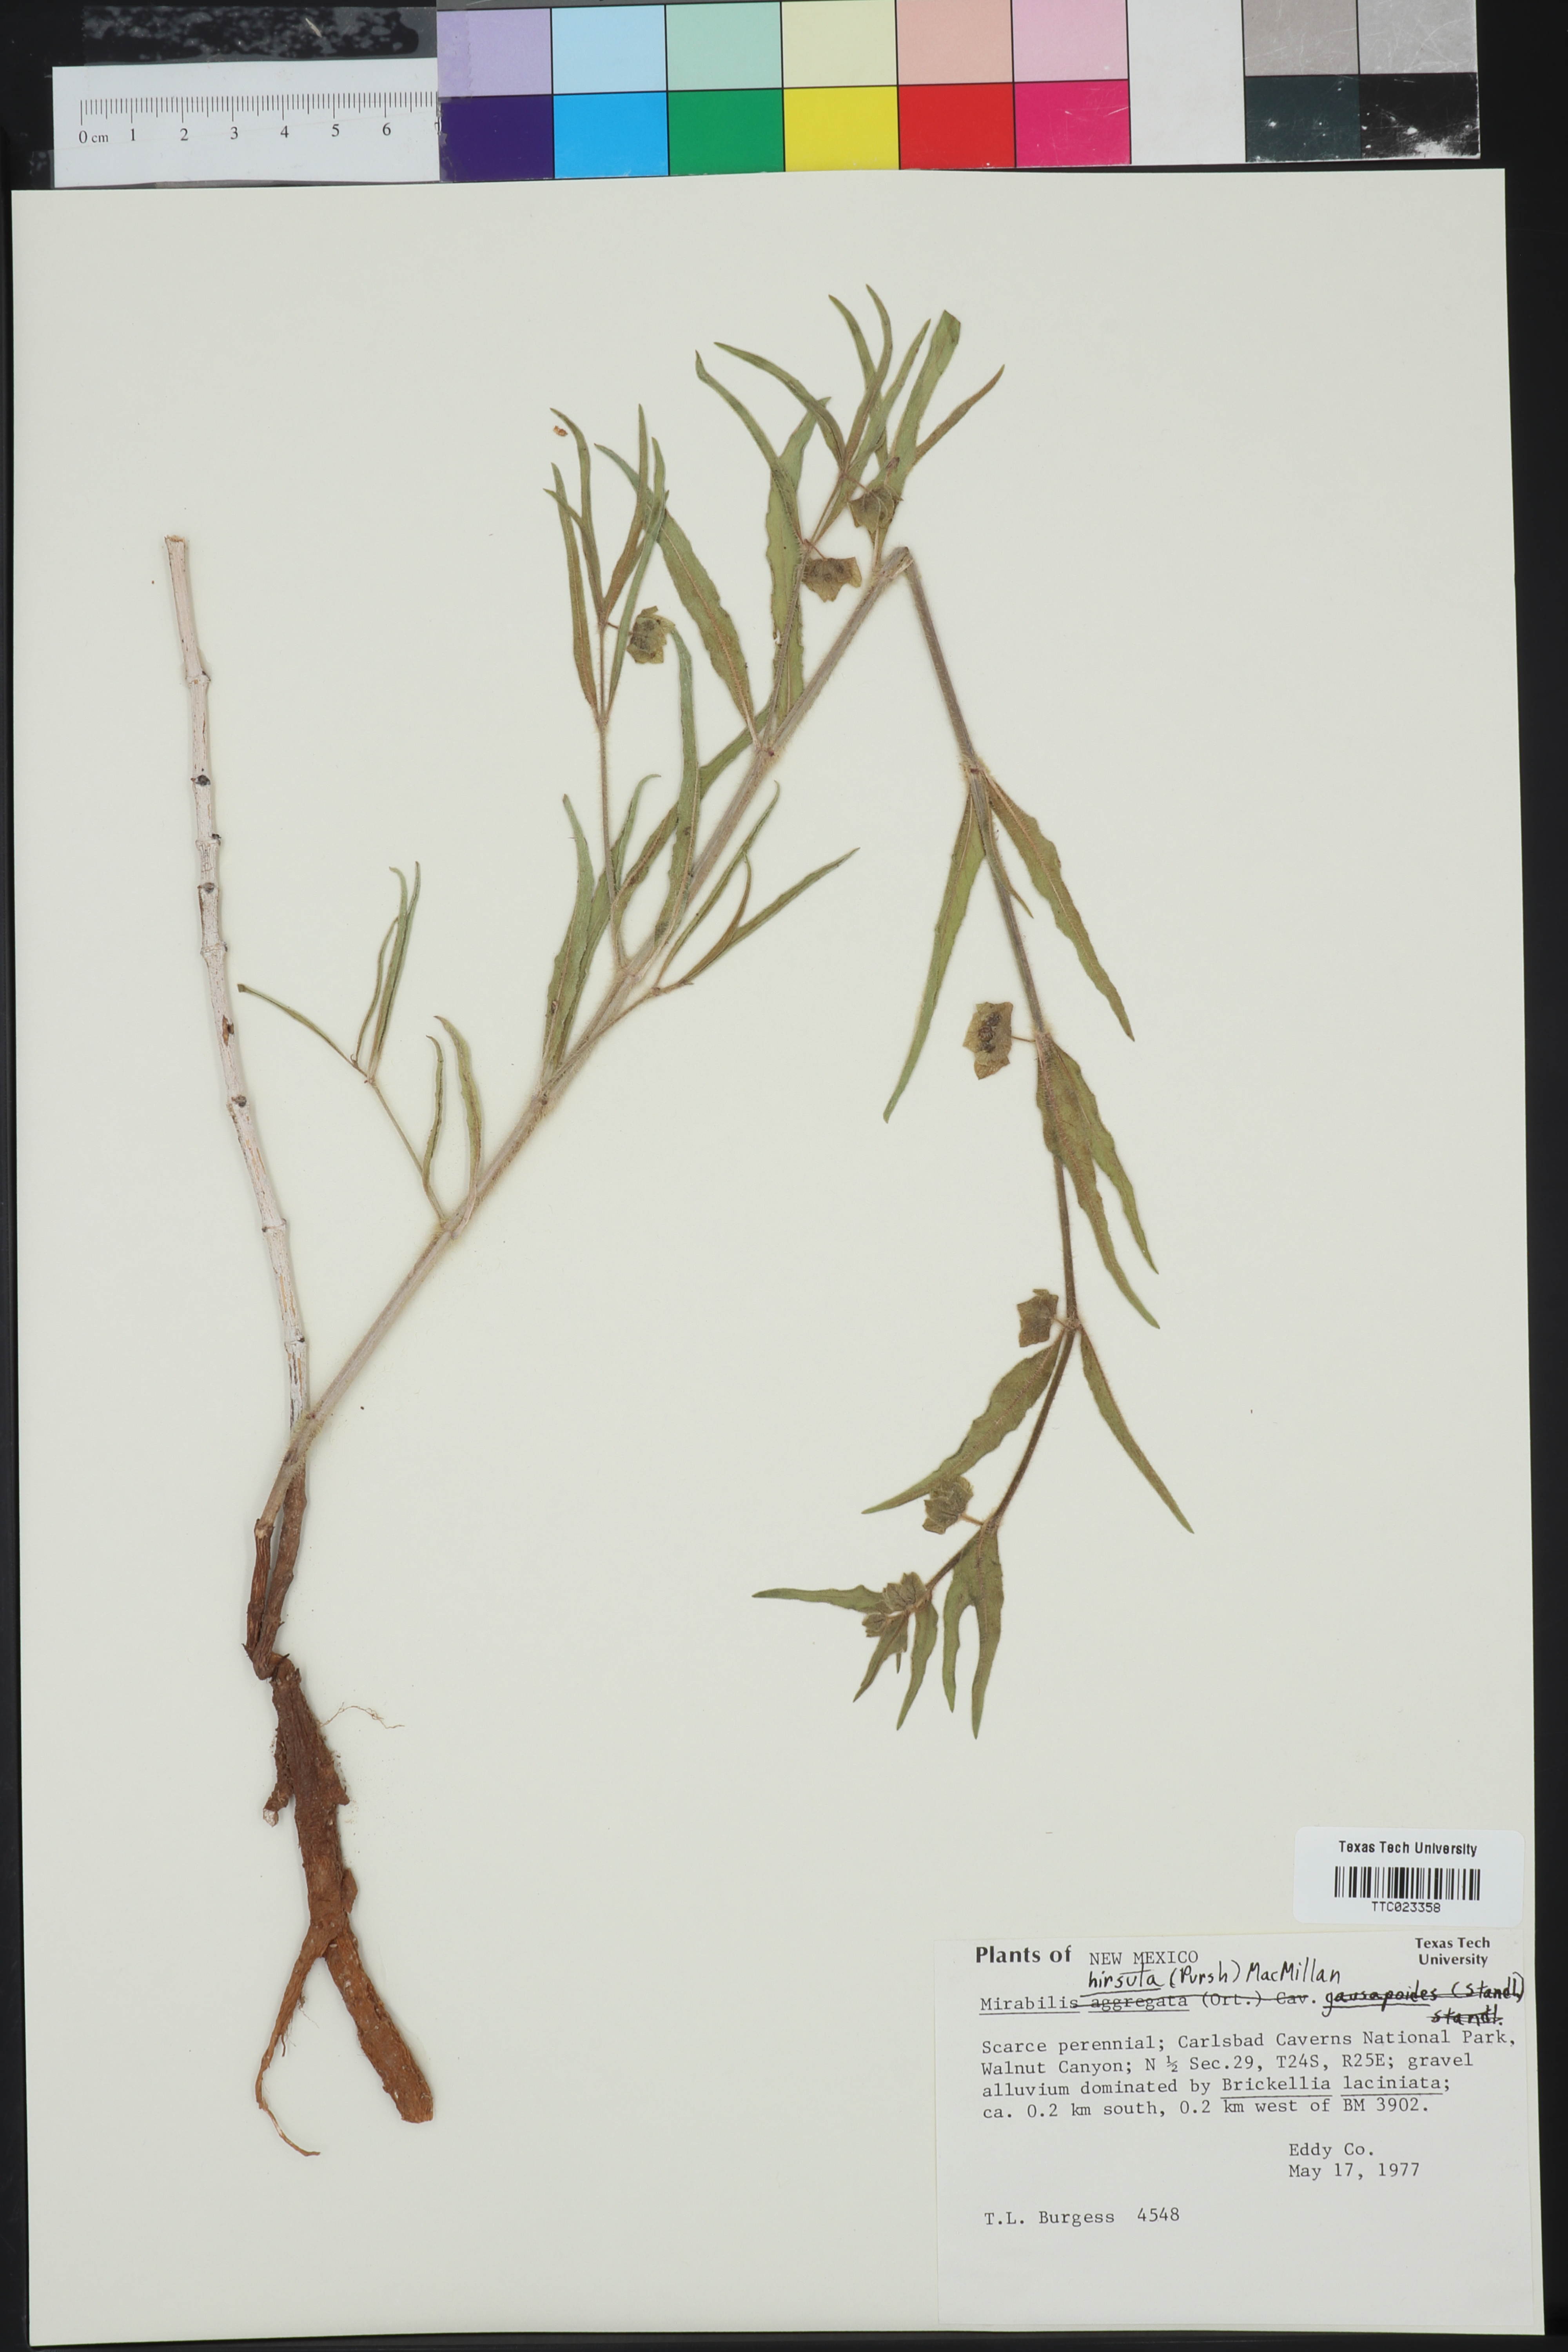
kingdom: Plantae
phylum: Tracheophyta
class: Magnoliopsida
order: Caryophyllales
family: Nyctaginaceae
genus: Mirabilis
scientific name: Mirabilis albida
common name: Hairy four-o'clock
